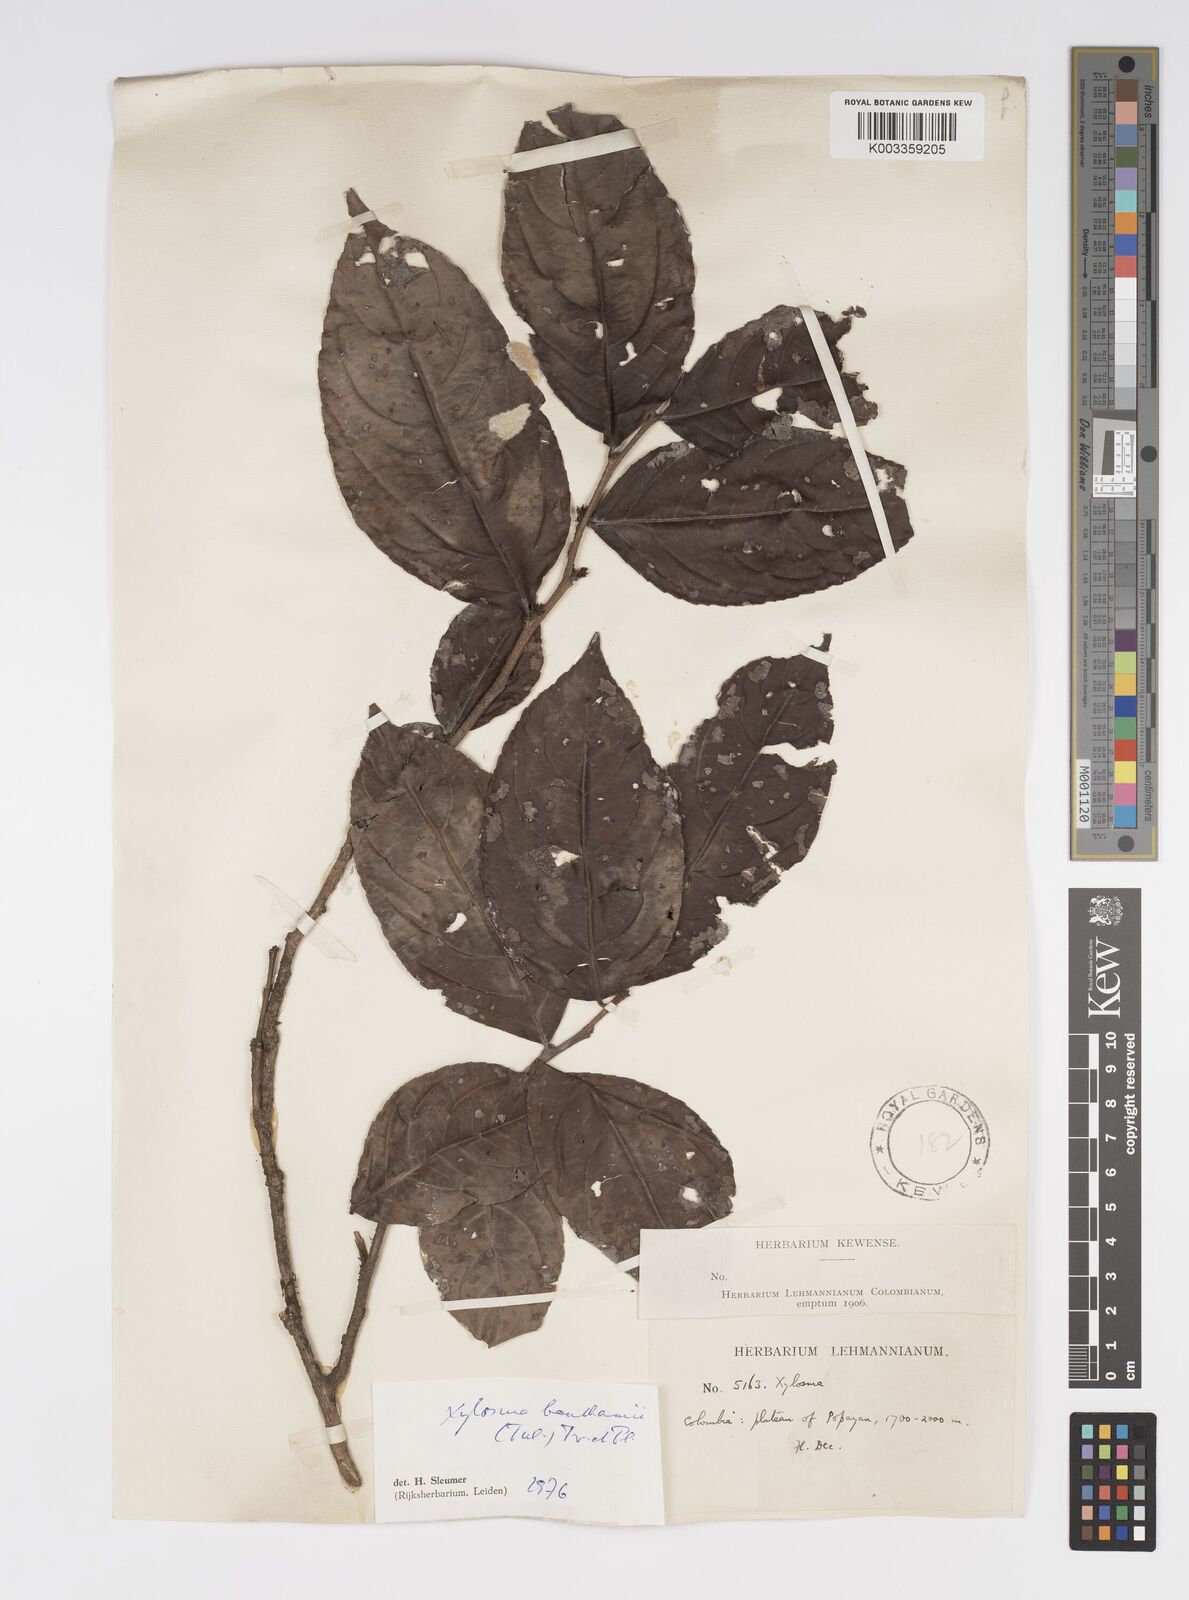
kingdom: Plantae
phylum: Tracheophyta
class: Magnoliopsida
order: Malpighiales
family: Salicaceae
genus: Xylosma
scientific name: Xylosma benthamii
